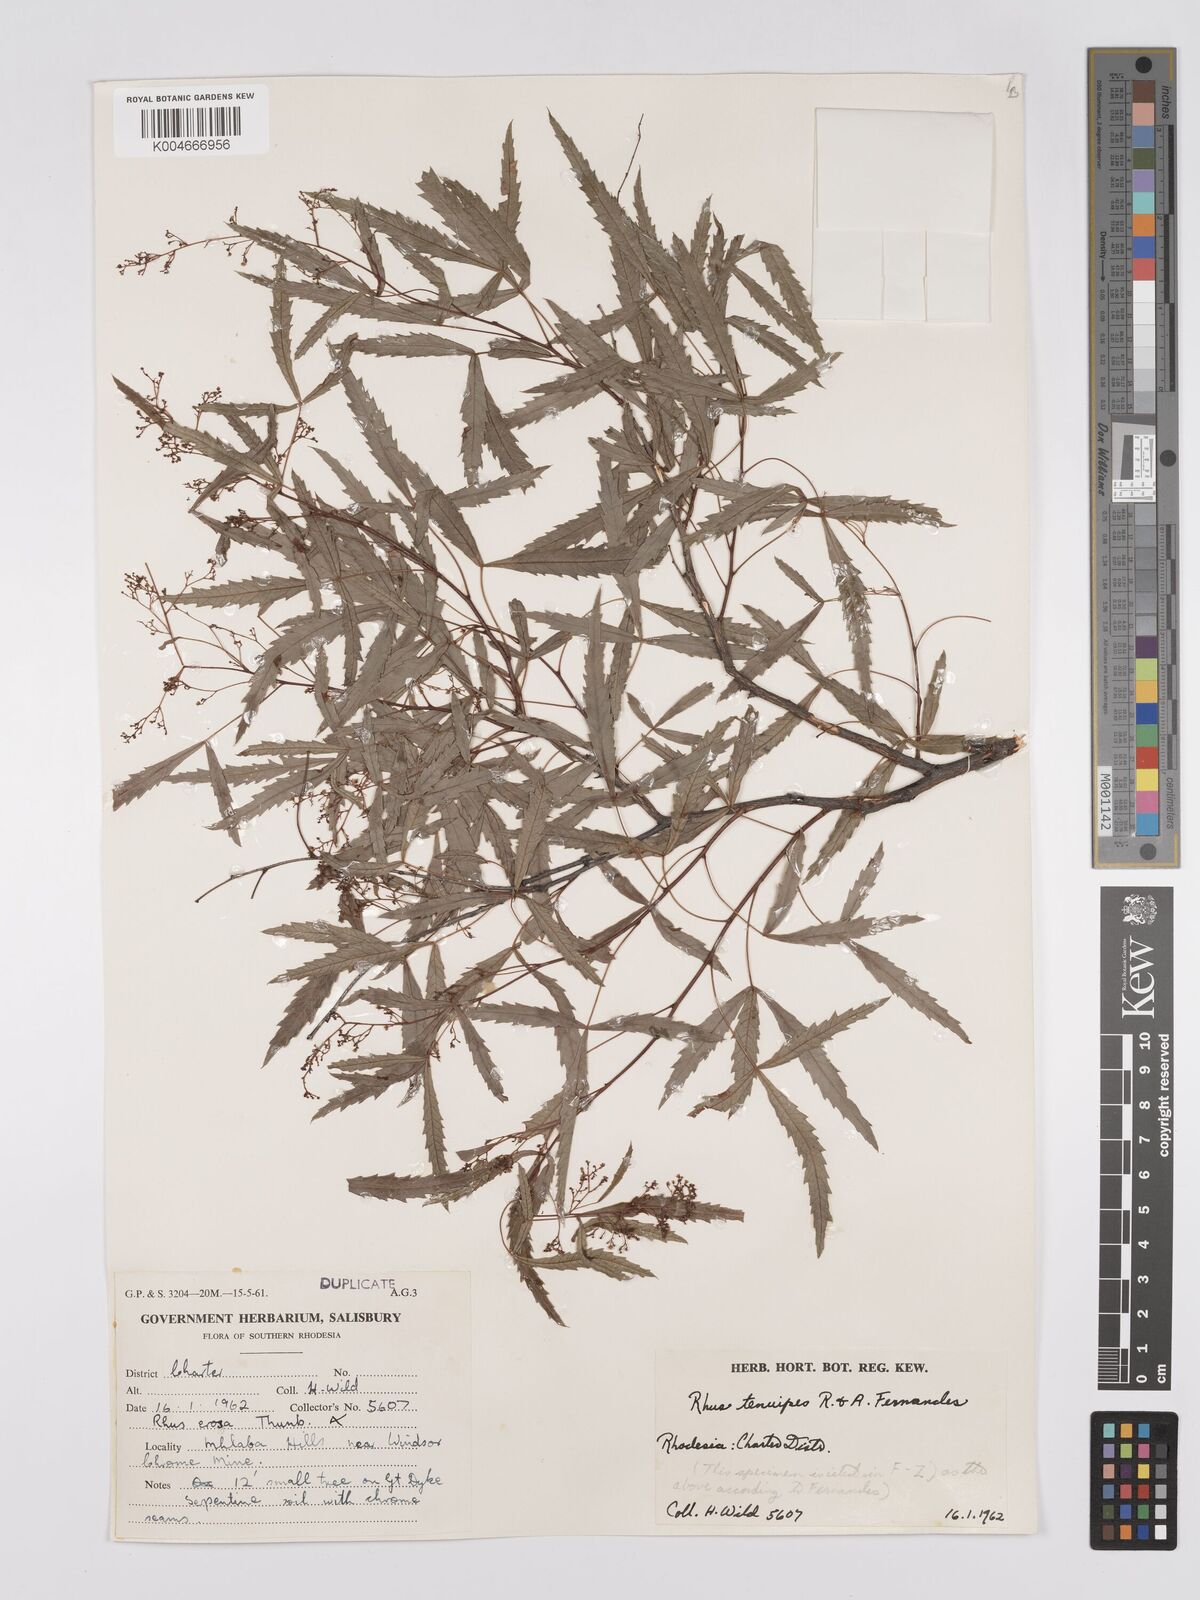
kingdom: Plantae
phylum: Tracheophyta
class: Magnoliopsida
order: Sapindales
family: Anacardiaceae
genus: Searsia
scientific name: Searsia tenuipes
